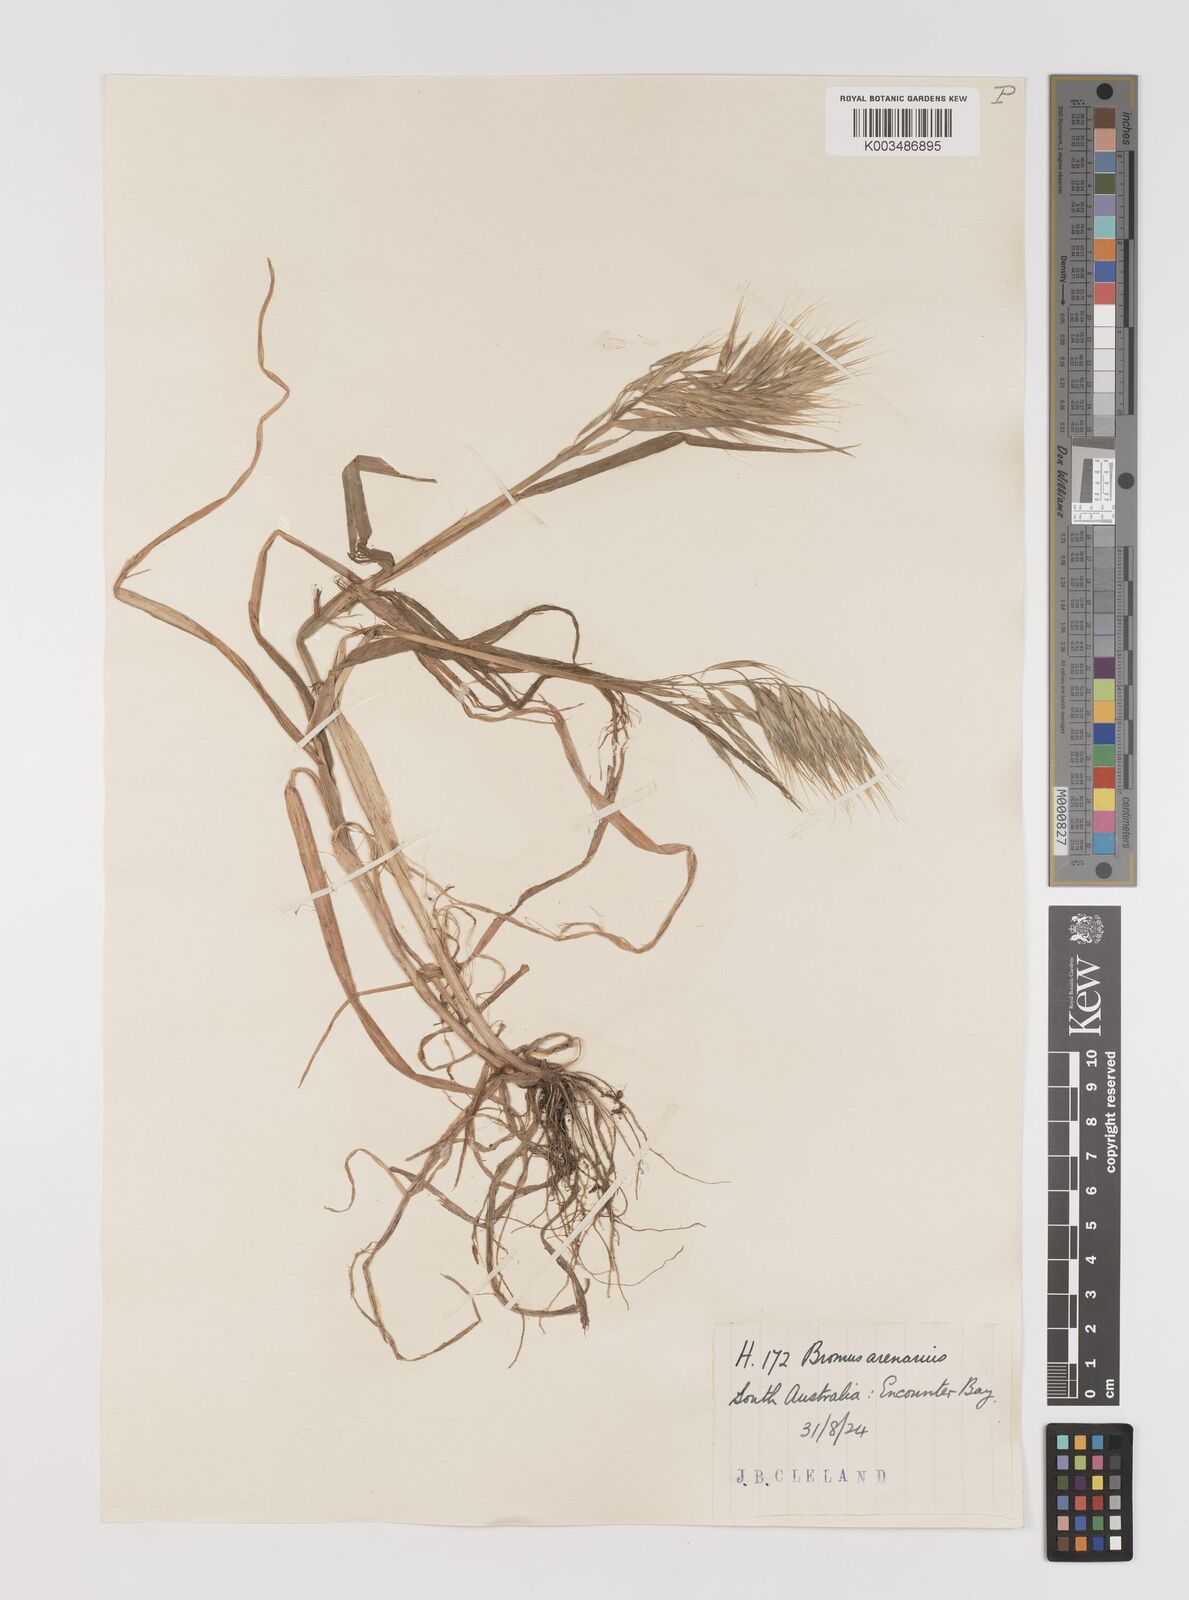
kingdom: Plantae
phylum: Tracheophyta
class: Liliopsida
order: Poales
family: Poaceae
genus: Bromus
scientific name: Bromus arenarius
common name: Australian brome
